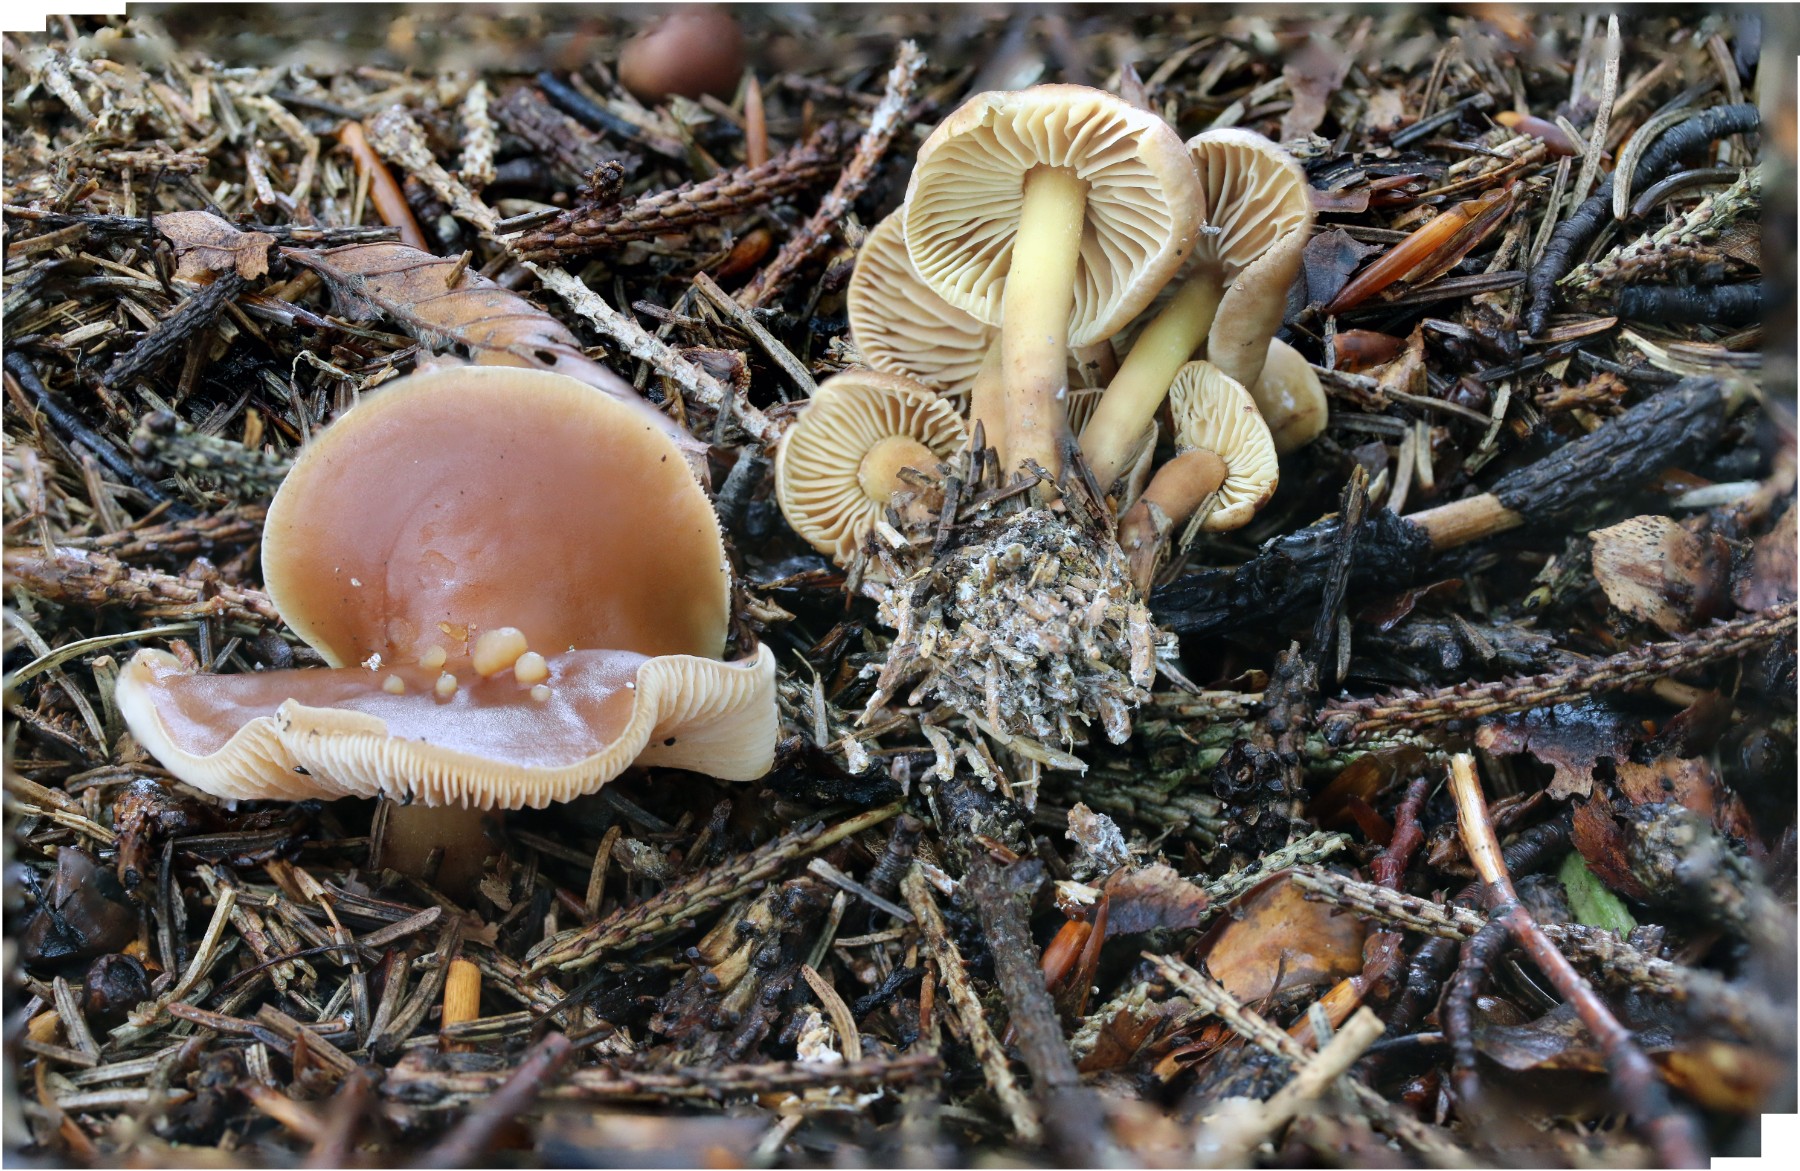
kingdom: Fungi
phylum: Basidiomycota
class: Agaricomycetes
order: Agaricales
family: Omphalotaceae
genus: Gymnopus
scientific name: Gymnopus ocior
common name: mørk fladhat
